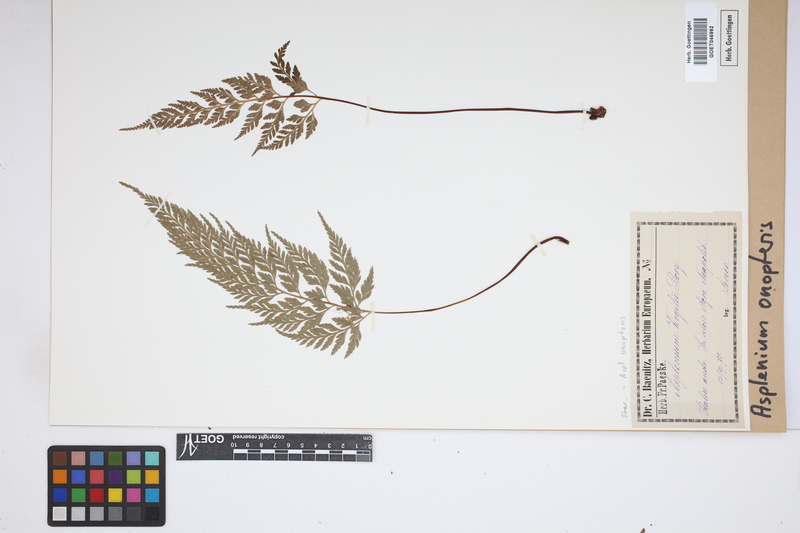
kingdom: Plantae
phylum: Tracheophyta
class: Polypodiopsida
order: Polypodiales
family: Aspleniaceae
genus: Asplenium
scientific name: Asplenium onopteris
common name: Irish spleenwort
